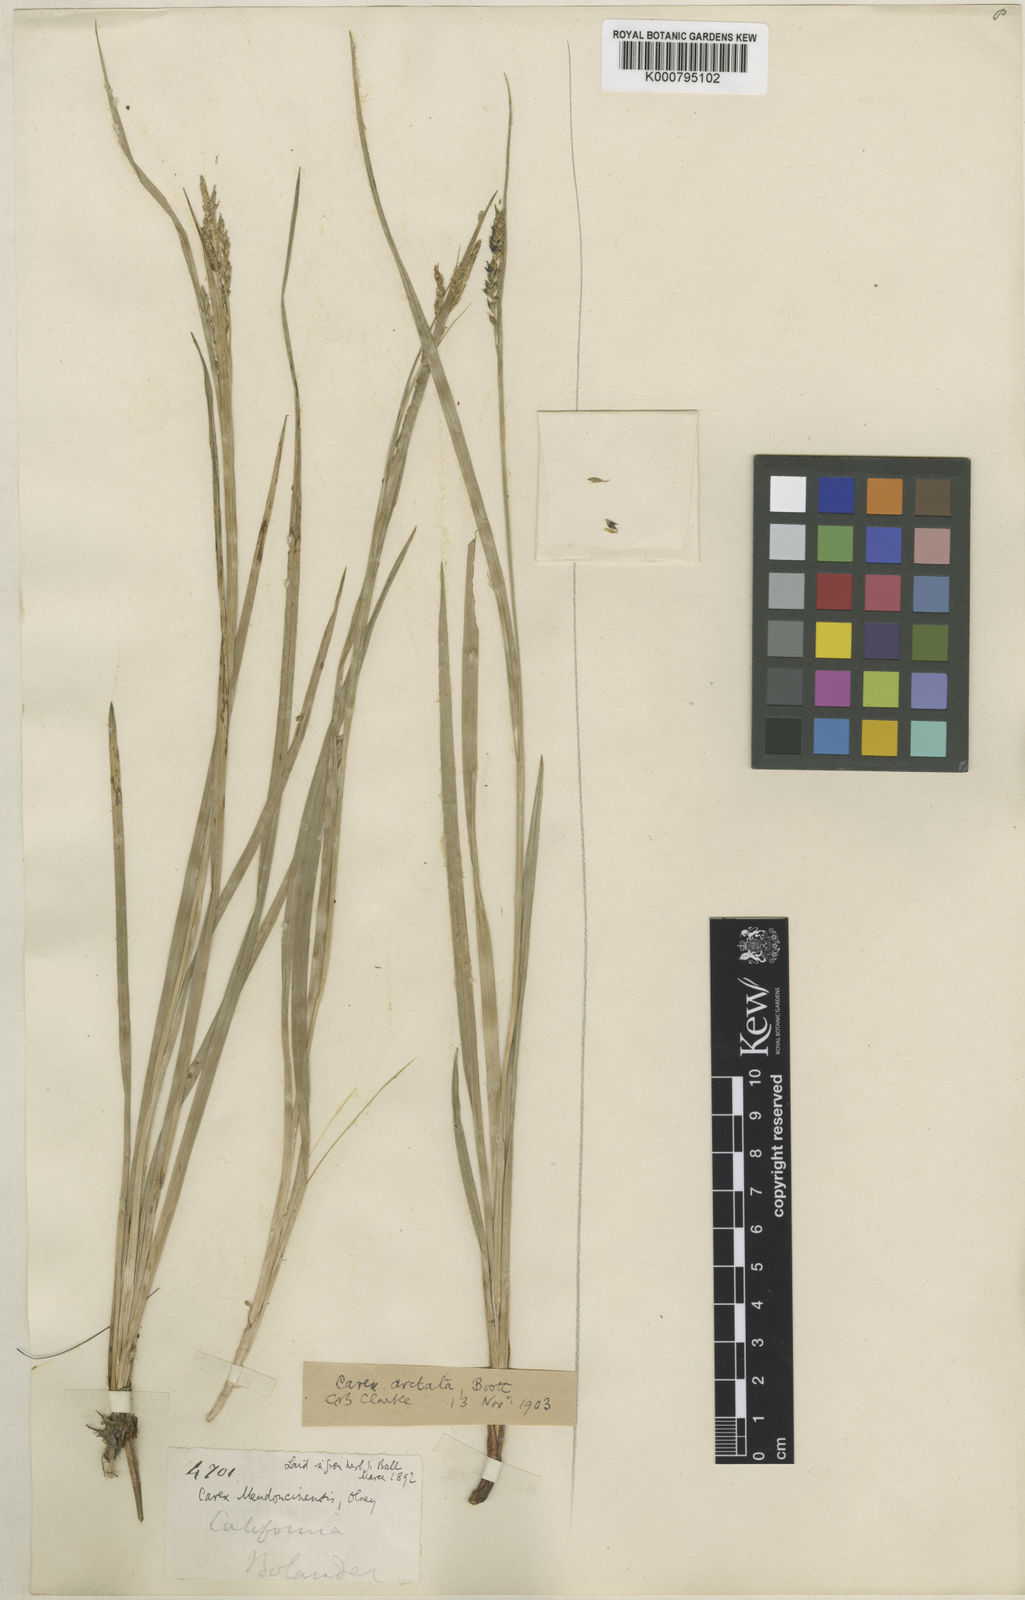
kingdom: Plantae
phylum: Tracheophyta
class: Liliopsida
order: Poales
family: Cyperaceae
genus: Carex
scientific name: Carex mendocinensis
